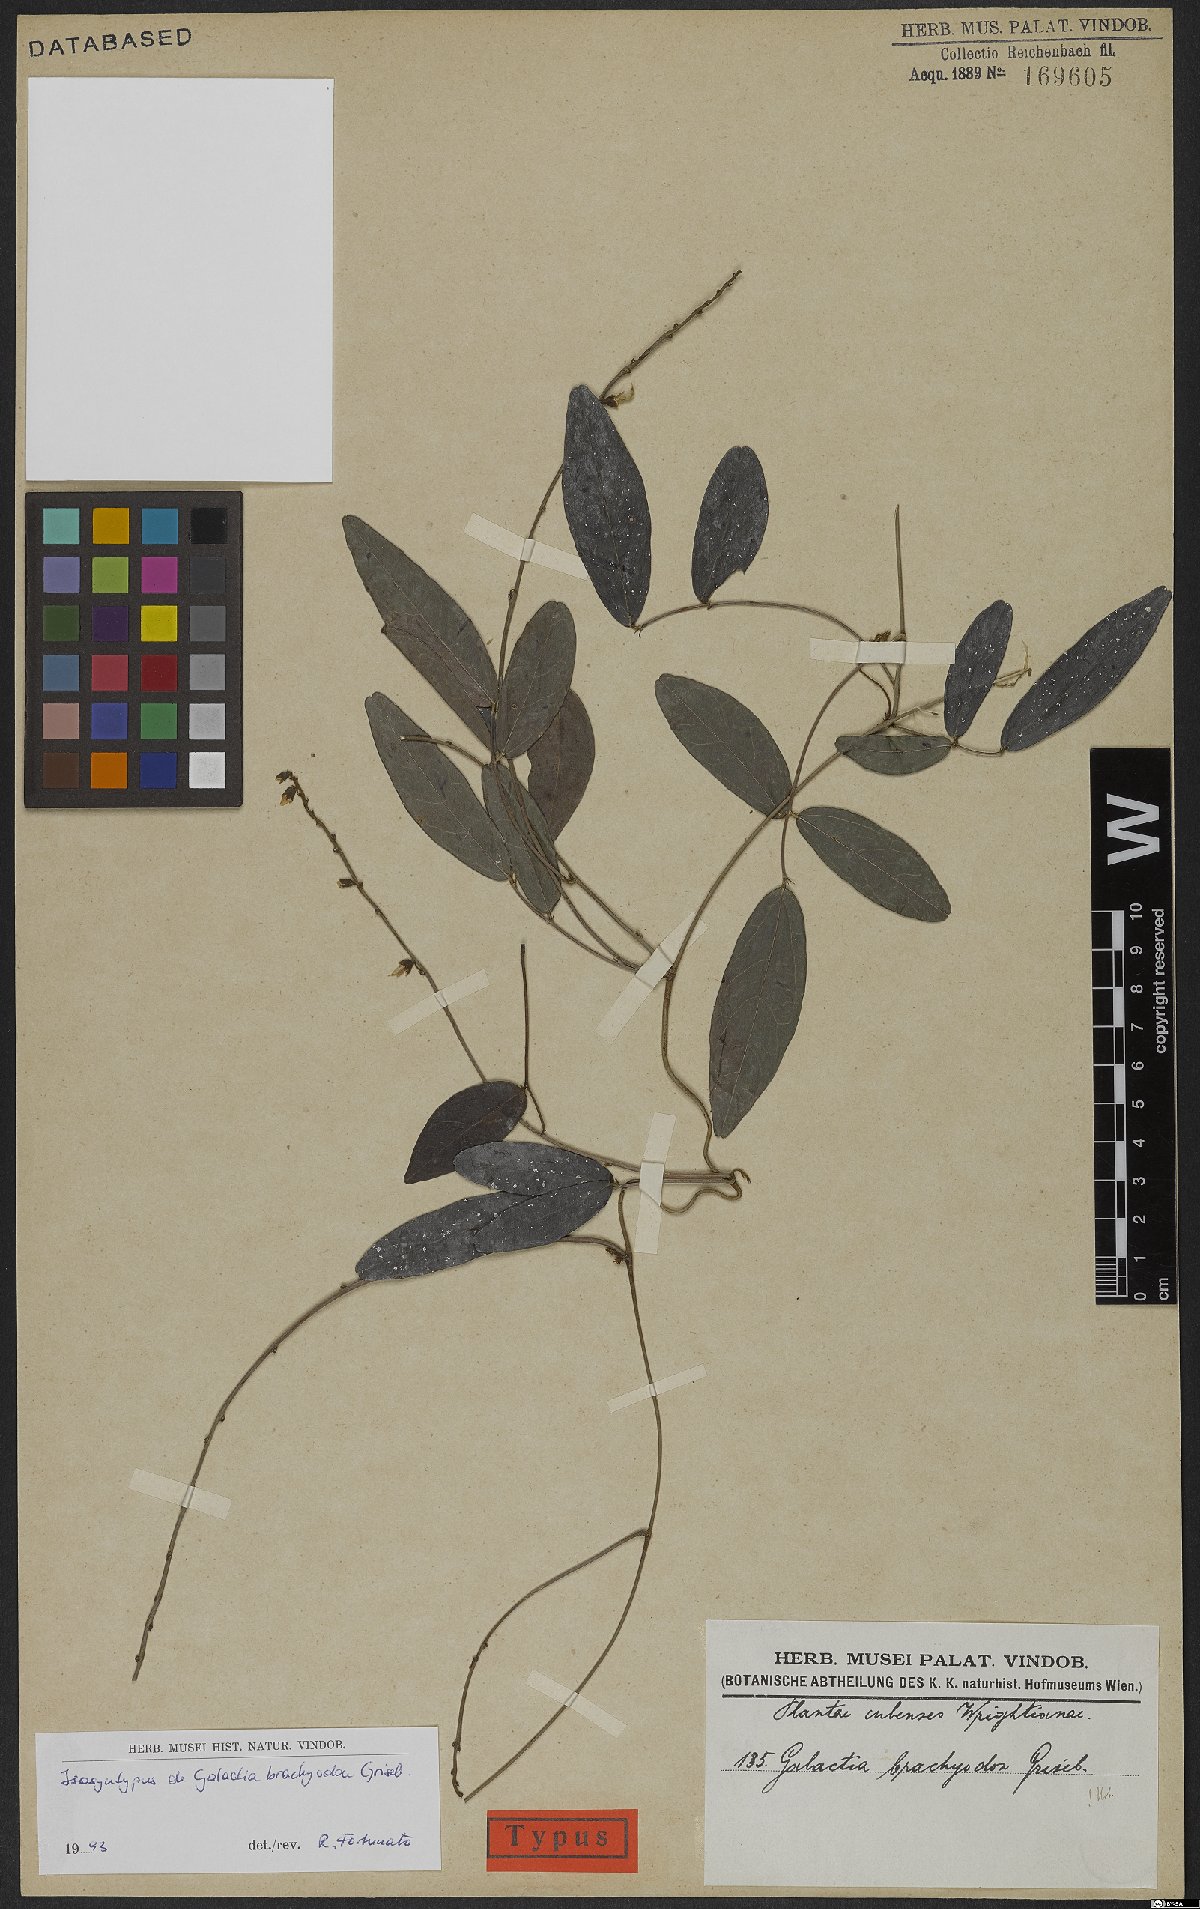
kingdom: Plantae
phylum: Tracheophyta
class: Magnoliopsida
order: Fabales
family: Fabaceae
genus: Galactia
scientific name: Galactia brachyodon
